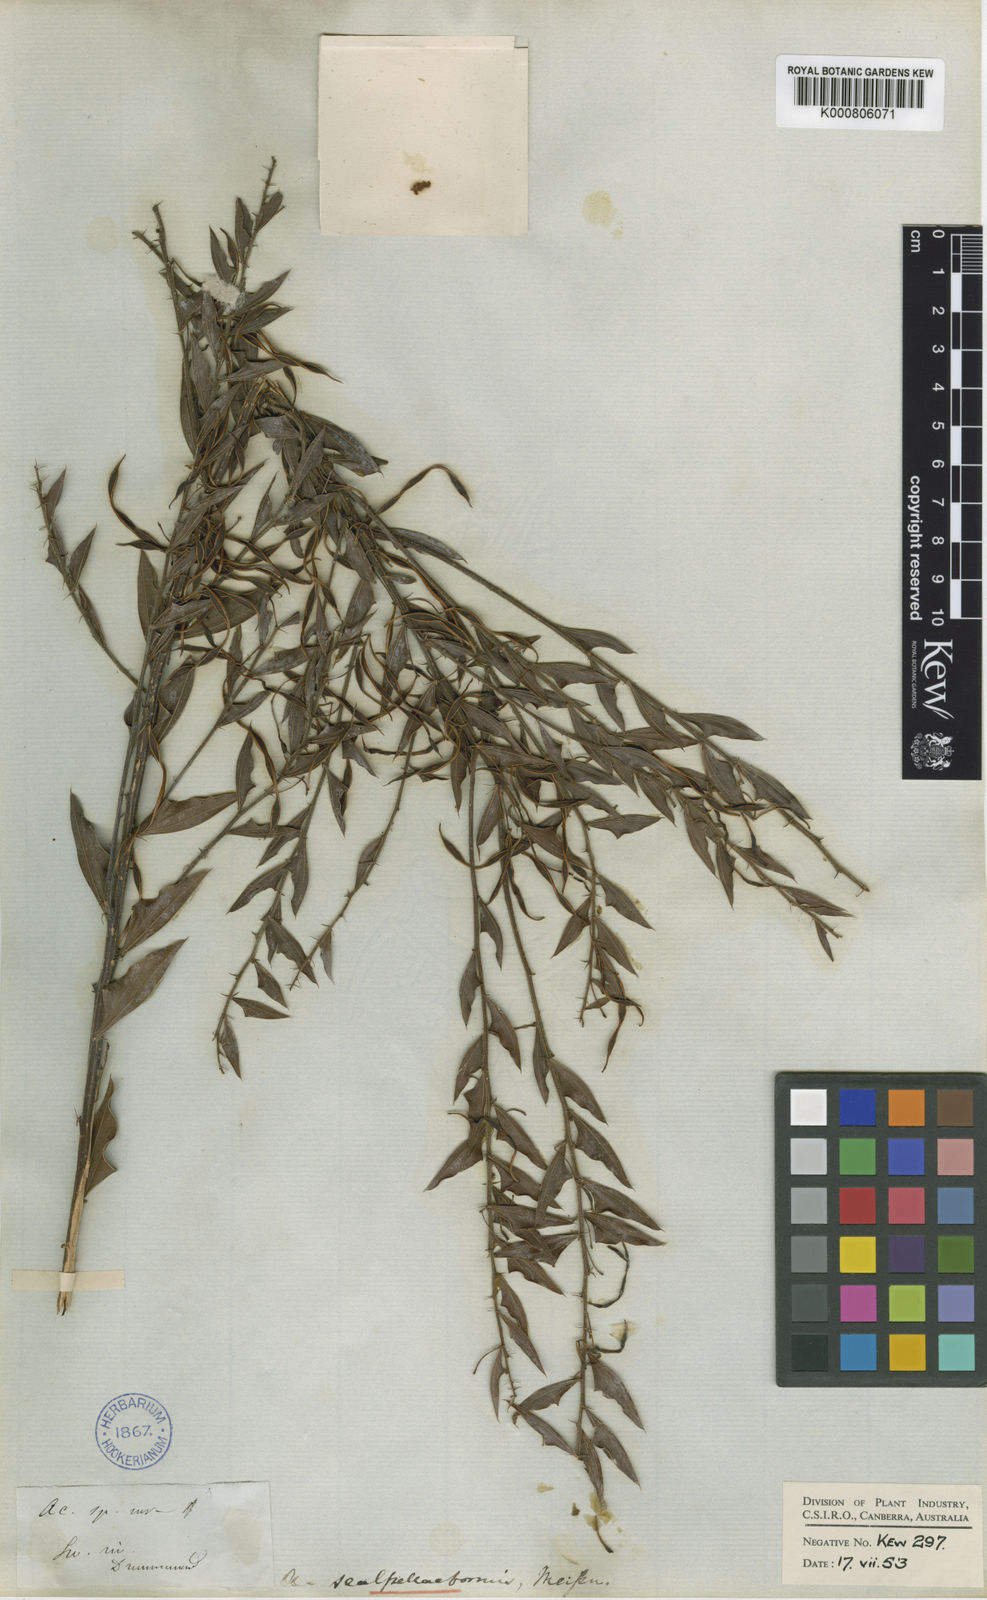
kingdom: Plantae
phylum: Tracheophyta
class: Magnoliopsida
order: Fabales
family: Fabaceae
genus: Acacia
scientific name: Acacia scalpelliformis
